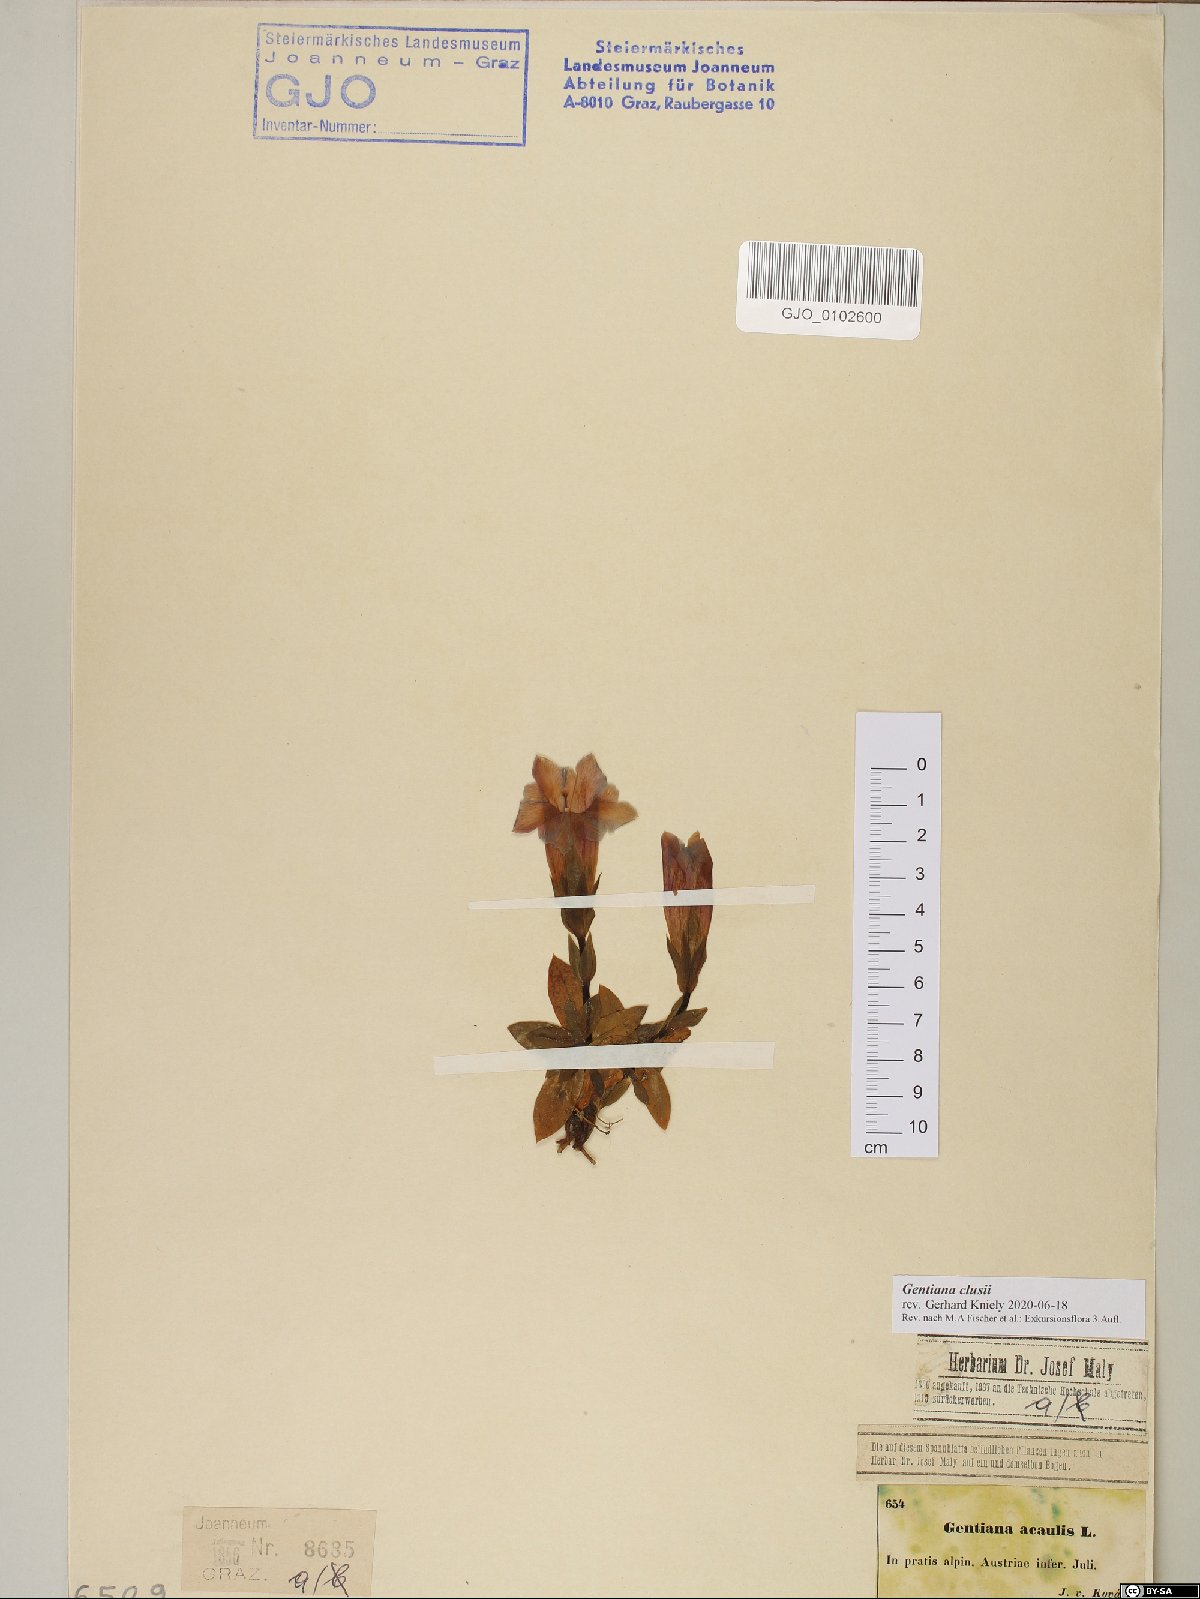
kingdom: Plantae
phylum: Tracheophyta
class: Magnoliopsida
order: Gentianales
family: Gentianaceae
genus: Gentiana
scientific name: Gentiana clusii
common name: Trumpet gentian
